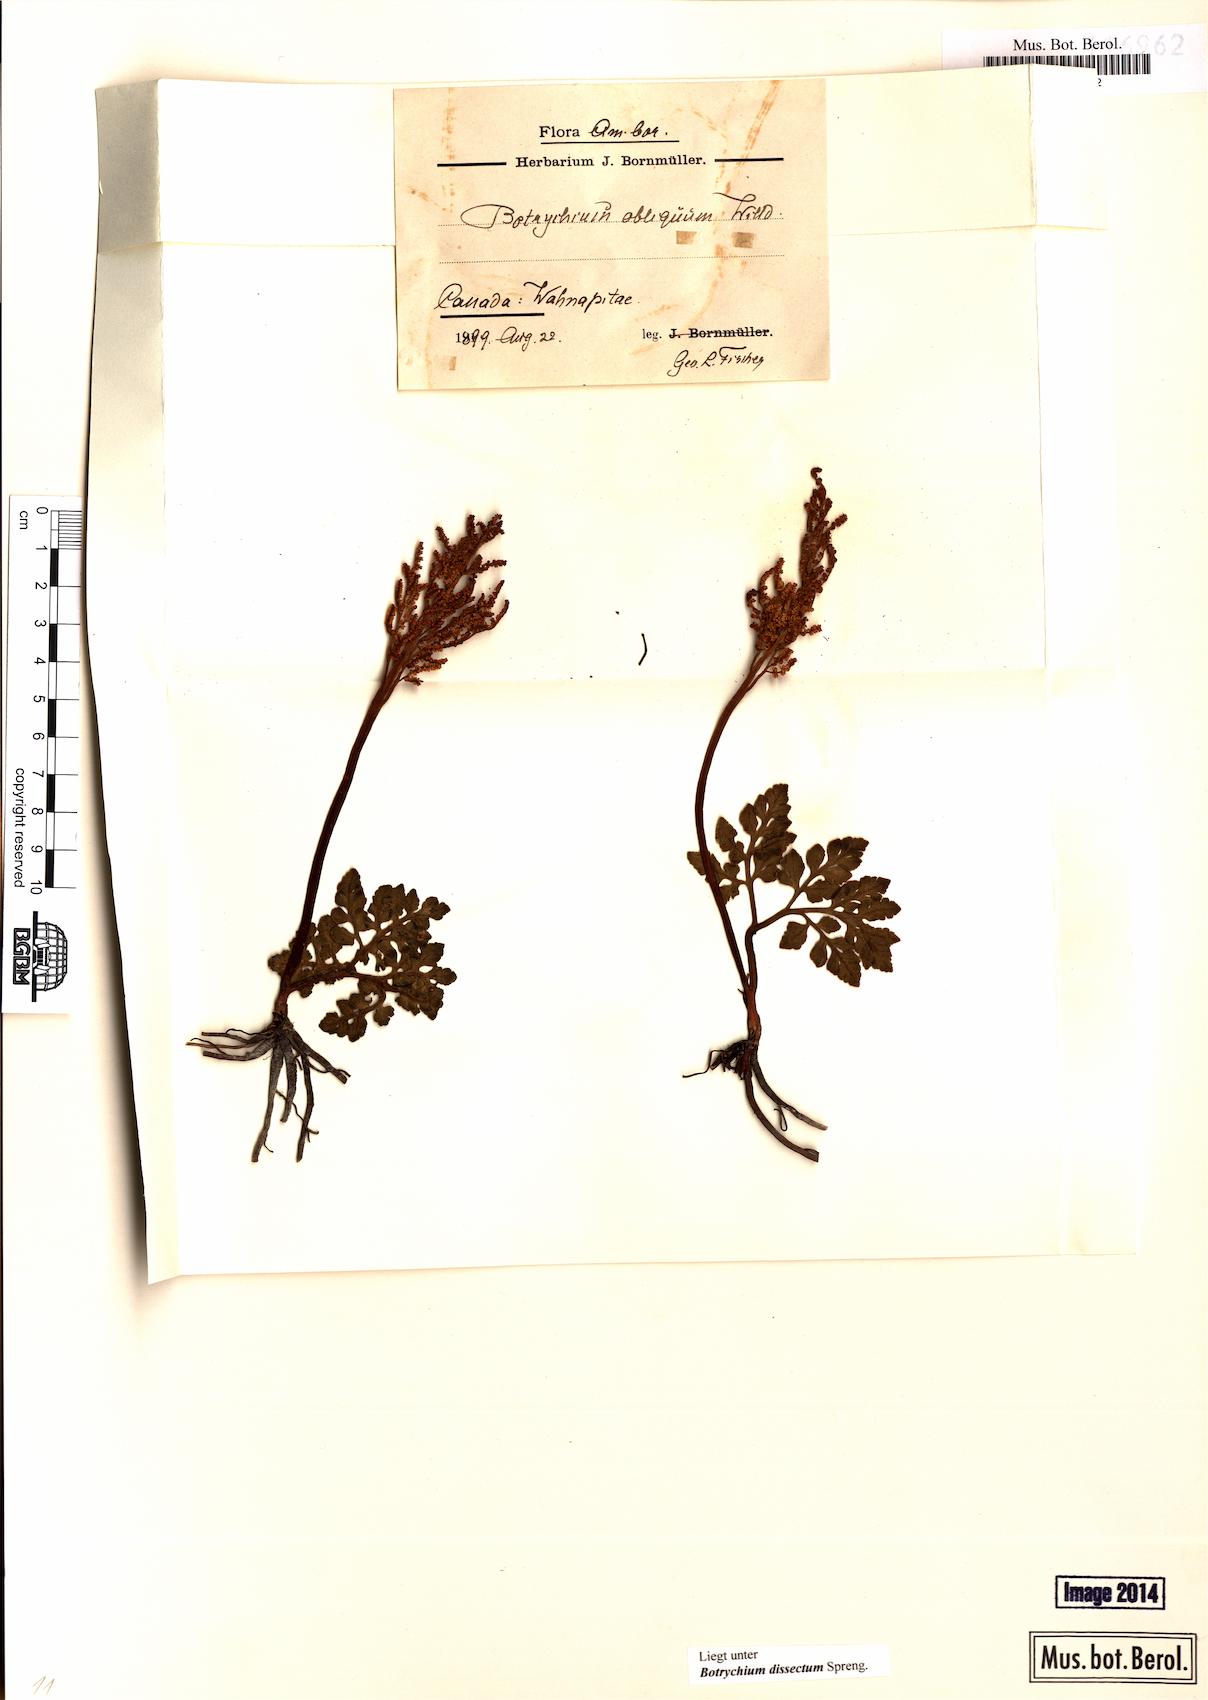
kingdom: Plantae
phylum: Tracheophyta
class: Polypodiopsida
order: Ophioglossales
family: Ophioglossaceae
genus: Sceptridium
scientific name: Sceptridium dissectum
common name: Cut-leaved grapefern
